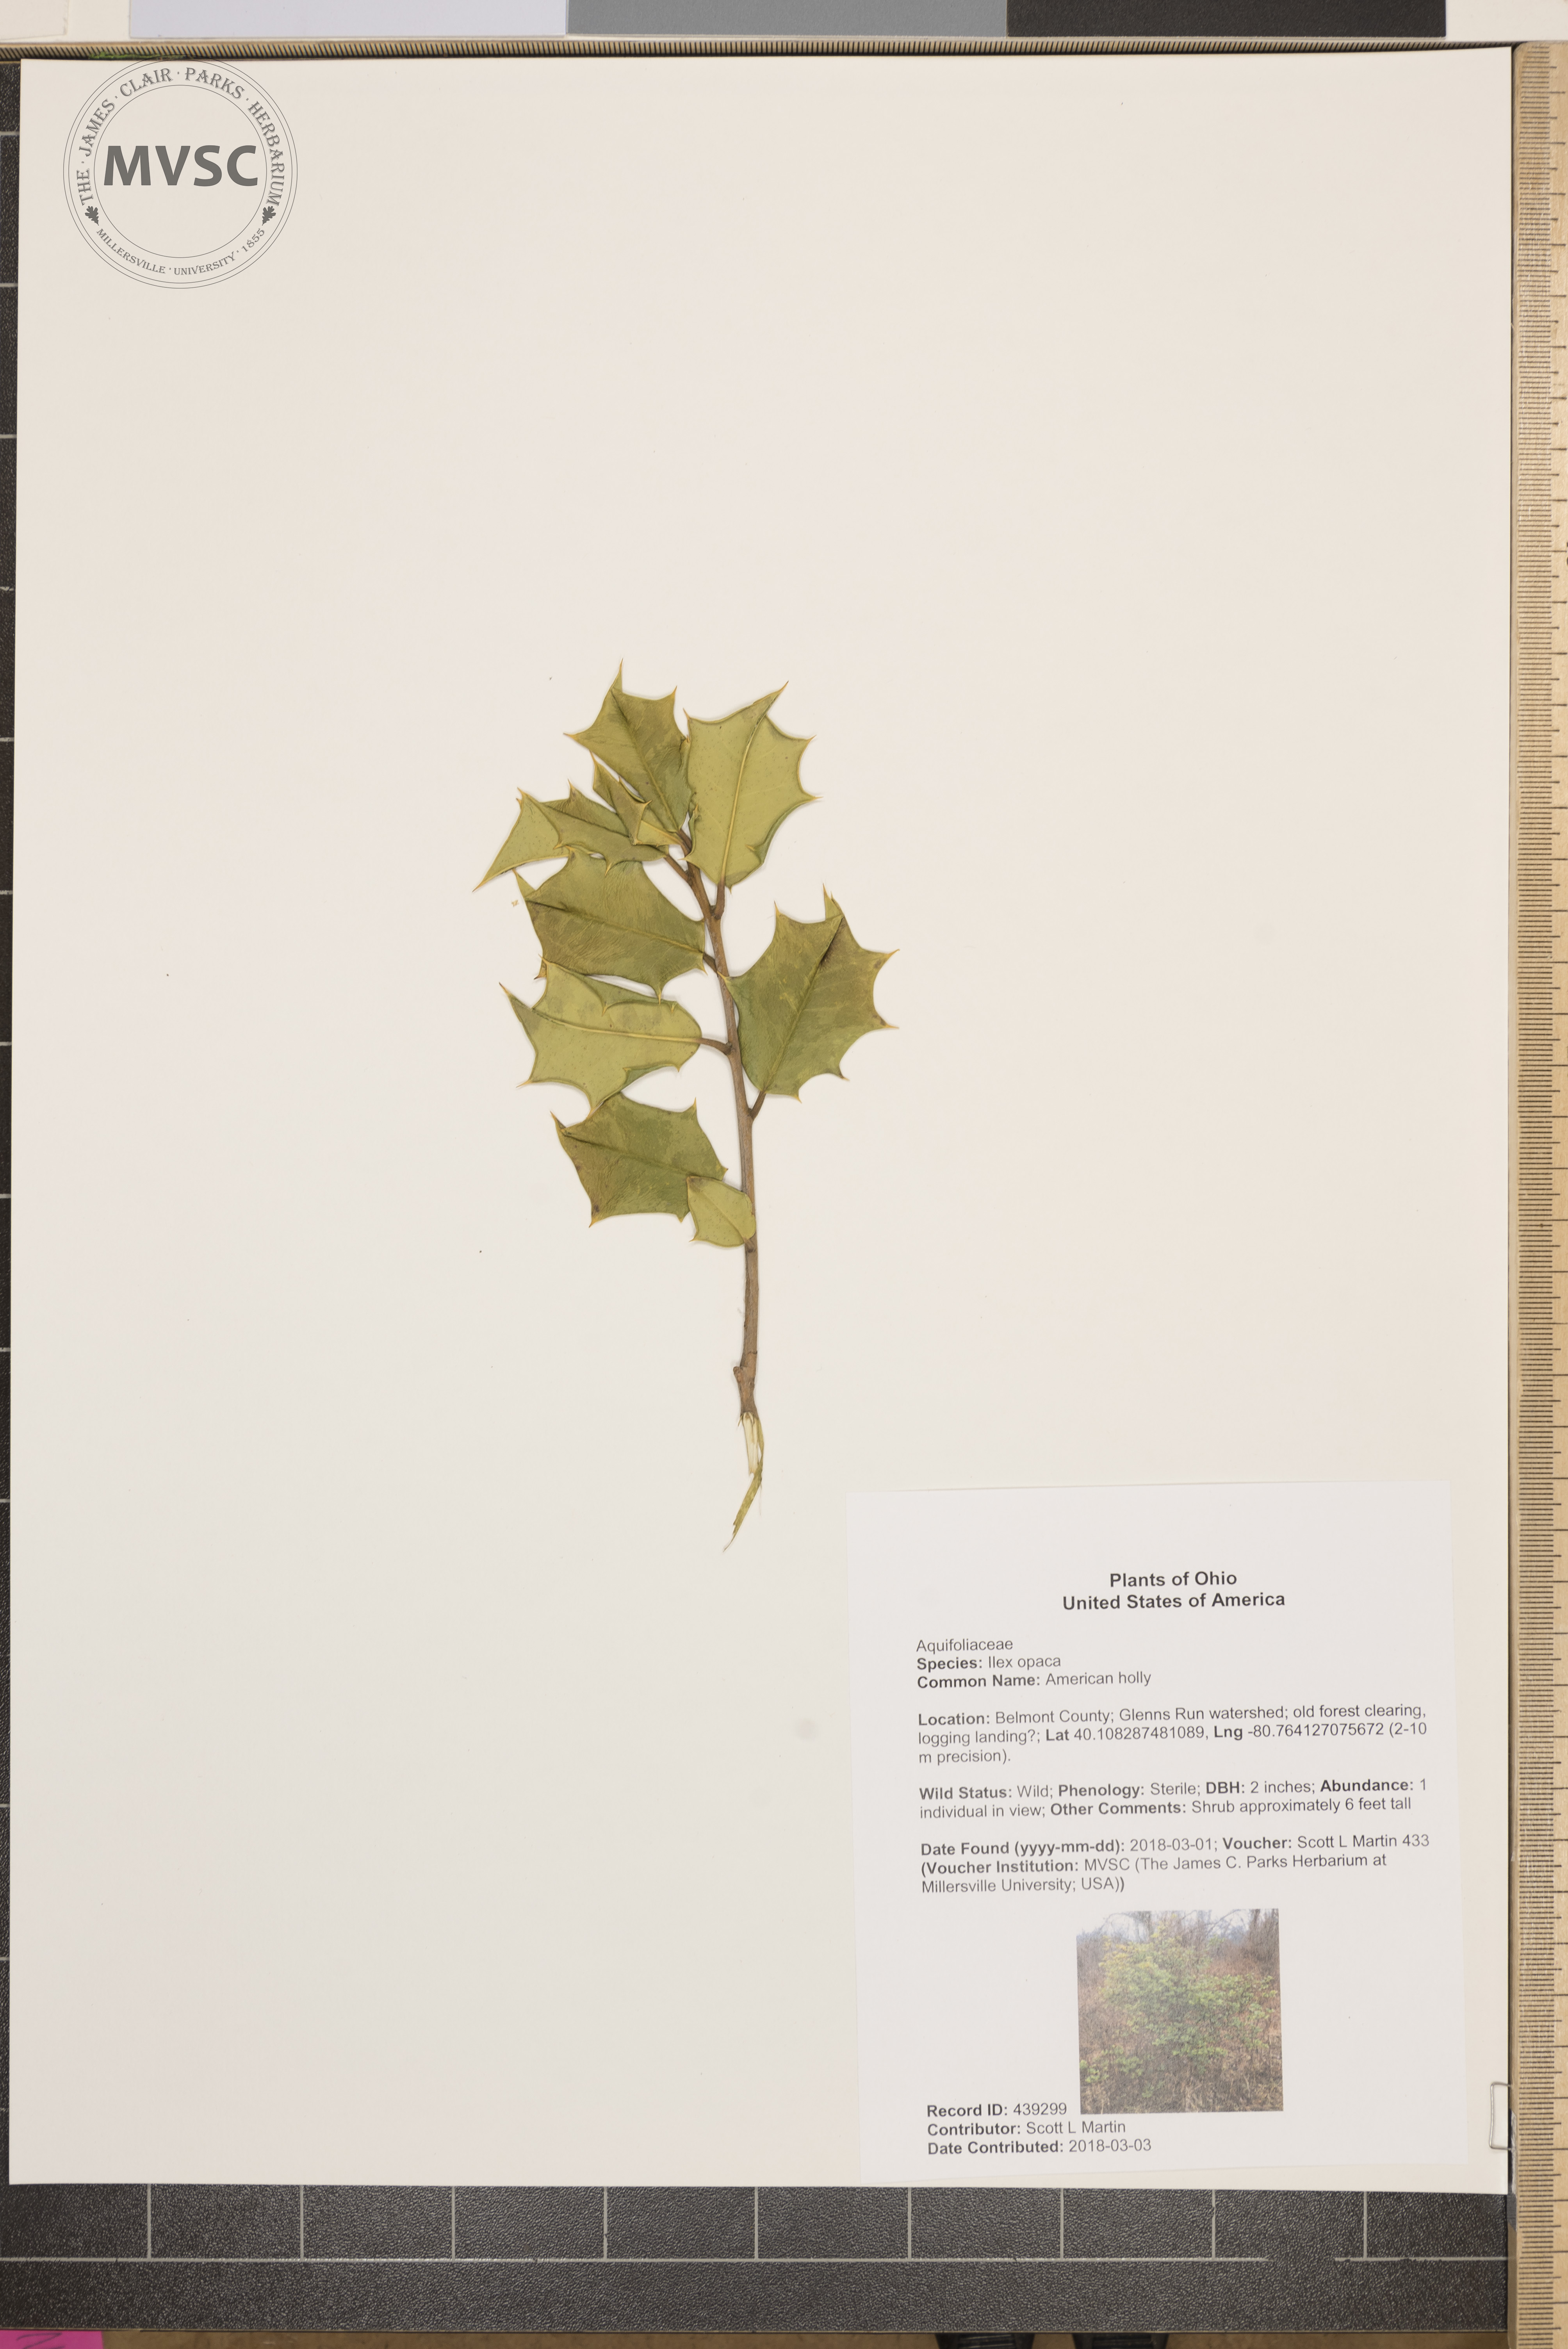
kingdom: Plantae
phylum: Tracheophyta
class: Magnoliopsida
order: Aquifoliales
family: Aquifoliaceae
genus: Ilex
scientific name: Ilex opaca
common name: American holly
